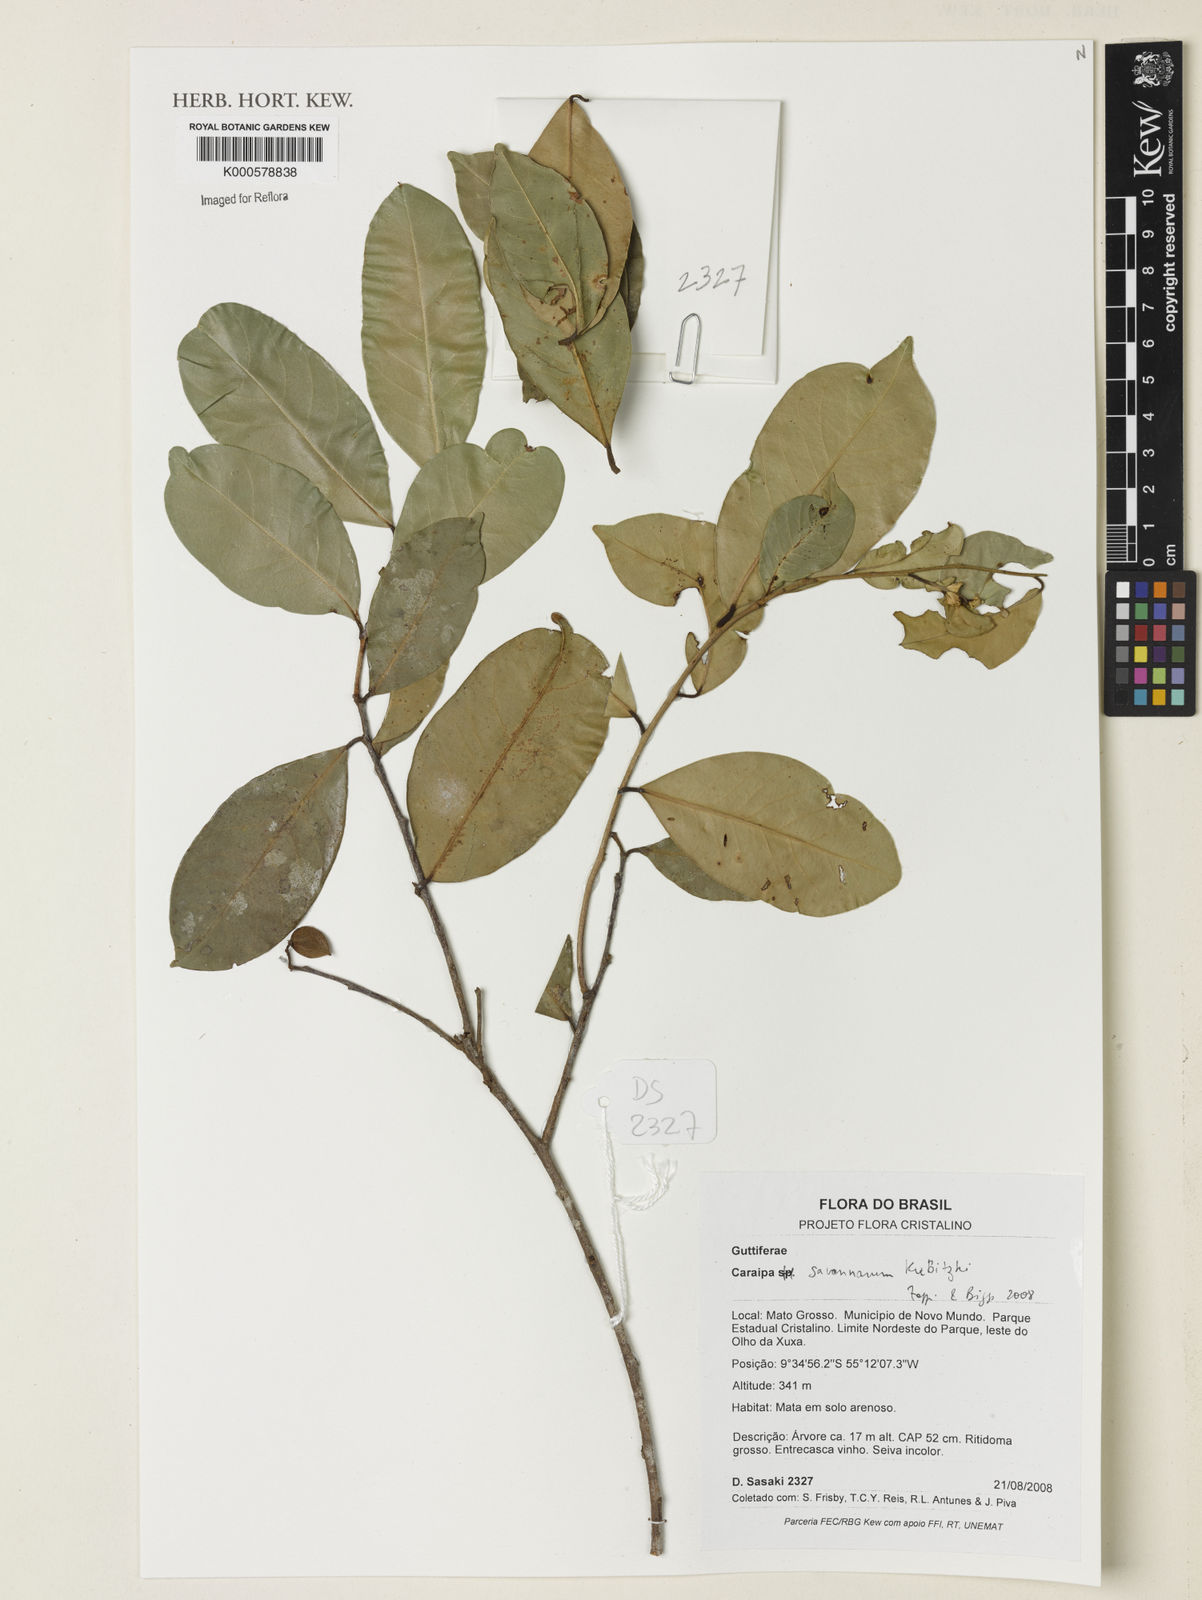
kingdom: Plantae
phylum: Tracheophyta
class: Magnoliopsida
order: Malpighiales
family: Calophyllaceae
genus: Caraipa
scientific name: Caraipa savannarum
